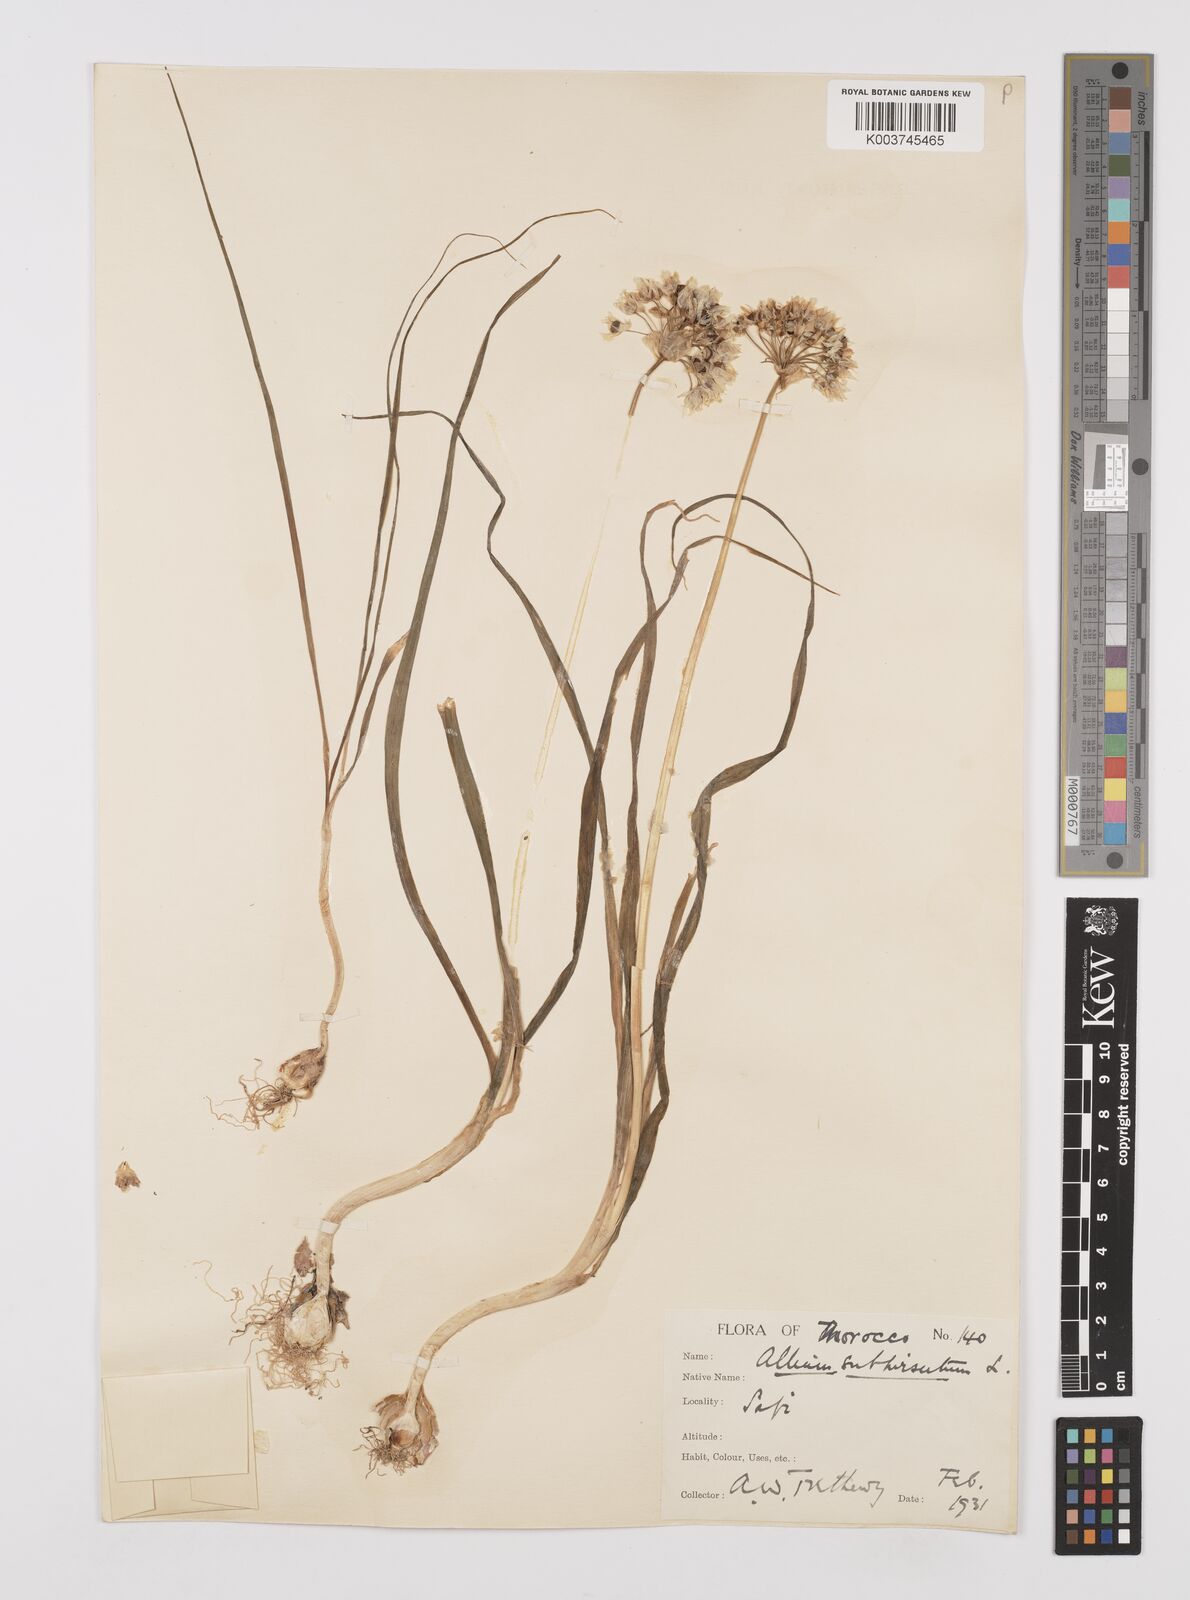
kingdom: Plantae
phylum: Tracheophyta
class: Liliopsida
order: Asparagales
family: Amaryllidaceae
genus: Allium
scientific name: Allium subhirsutum
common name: Hairy garlic
